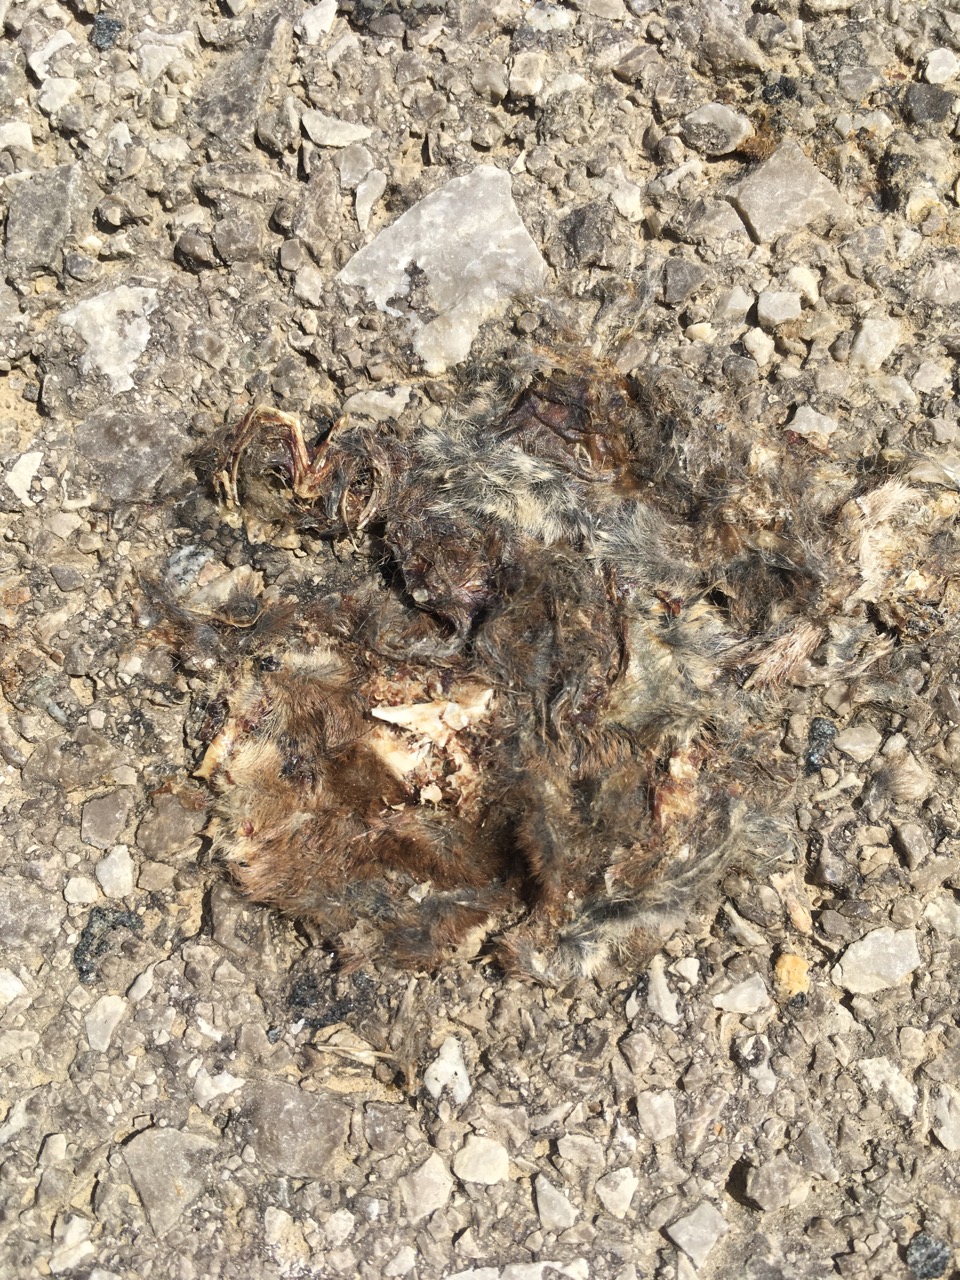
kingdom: Animalia
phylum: Chordata
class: Mammalia
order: Soricomorpha
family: Soricidae
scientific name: Soricidae
